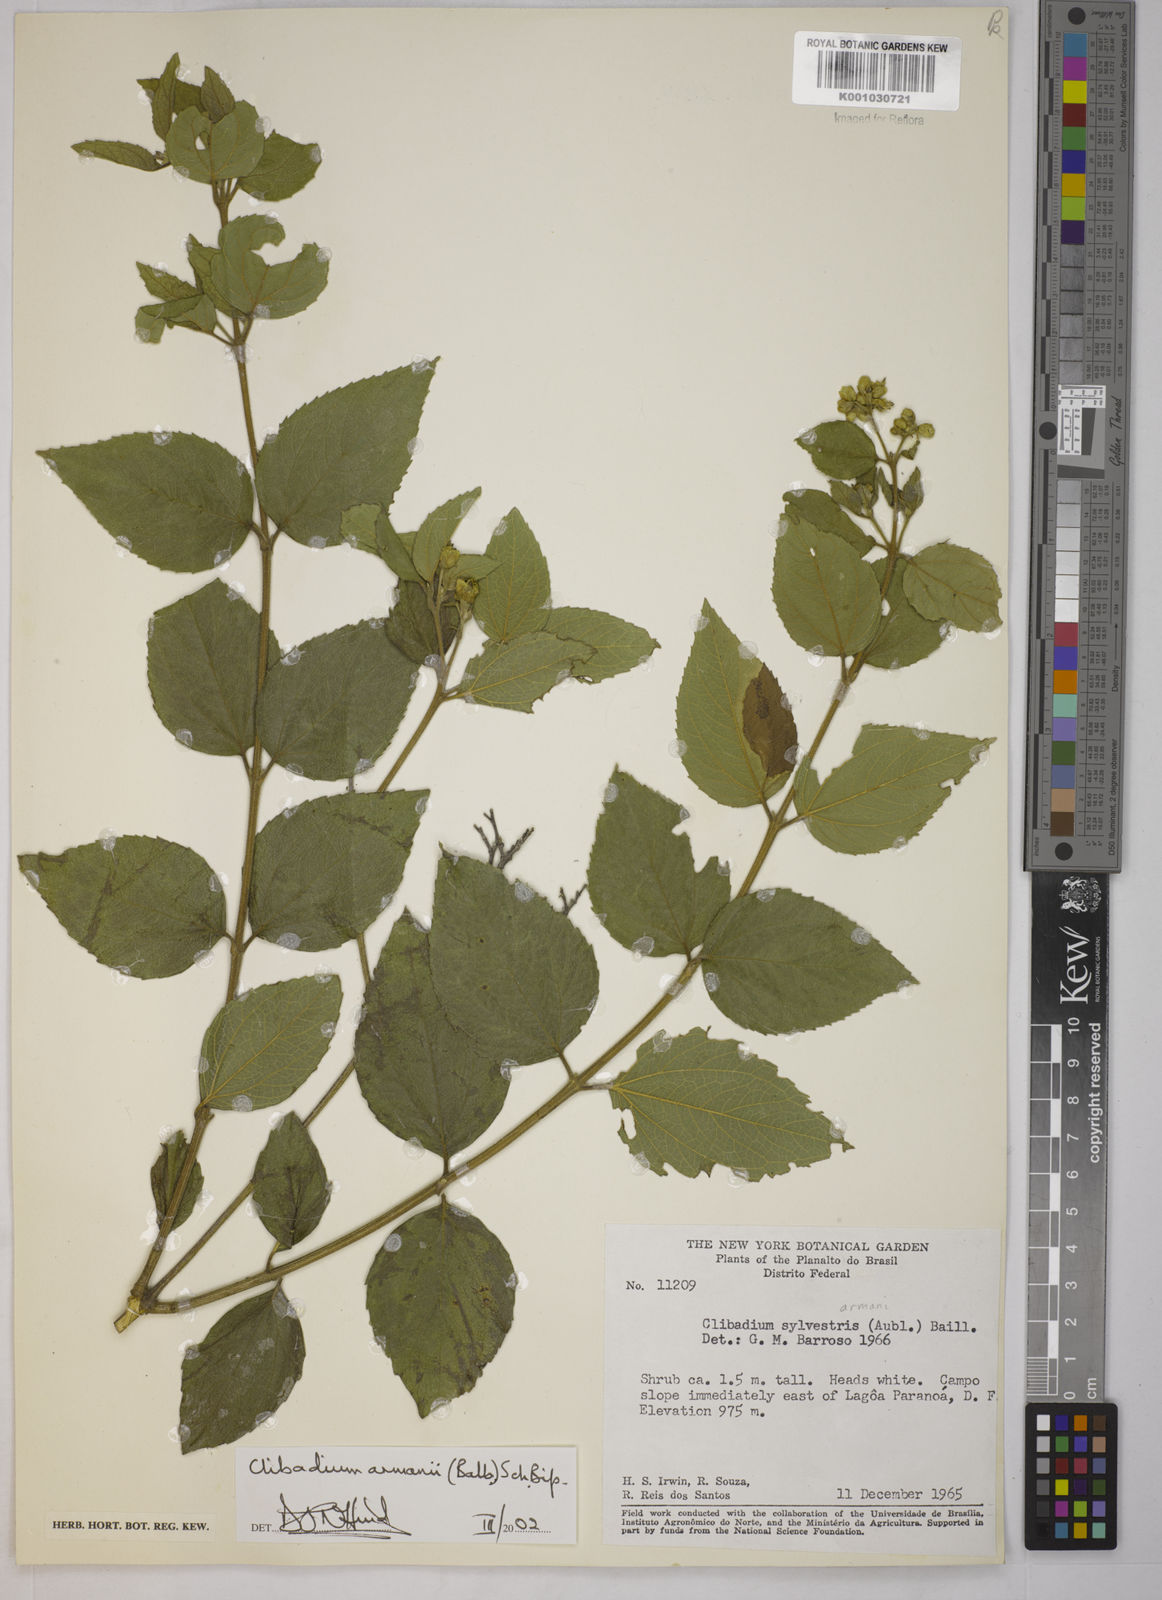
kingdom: Plantae
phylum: Tracheophyta
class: Magnoliopsida
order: Asterales
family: Asteraceae
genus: Clibadium
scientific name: Clibadium armanii
